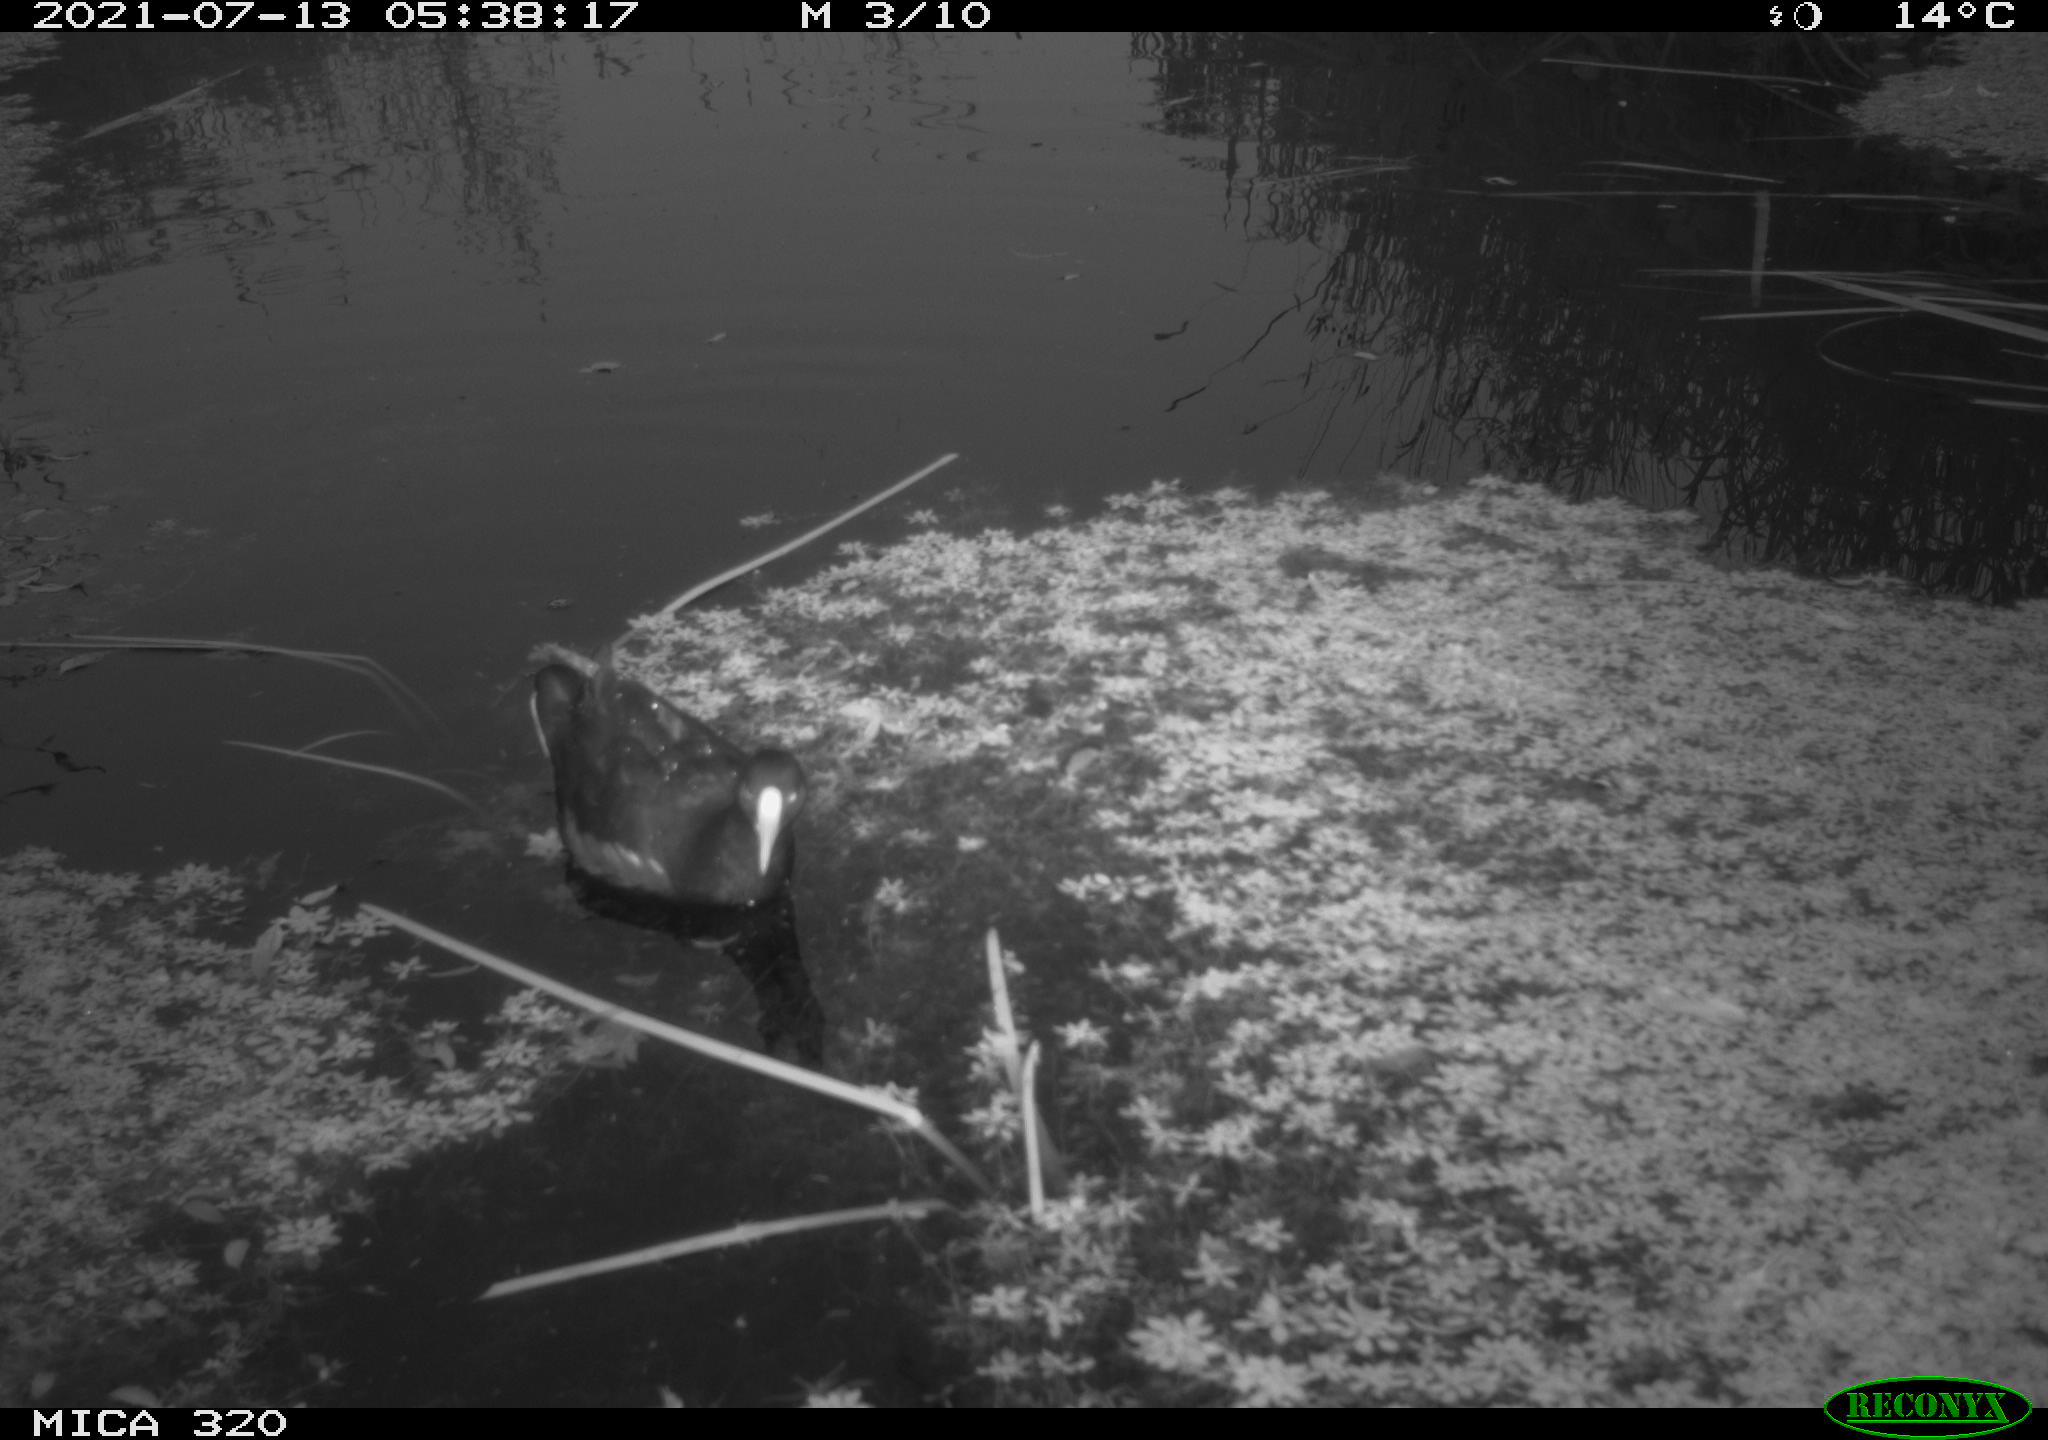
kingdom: Animalia
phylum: Chordata
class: Aves
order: Gruiformes
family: Rallidae
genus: Gallinula
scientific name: Gallinula chloropus
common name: Common moorhen
